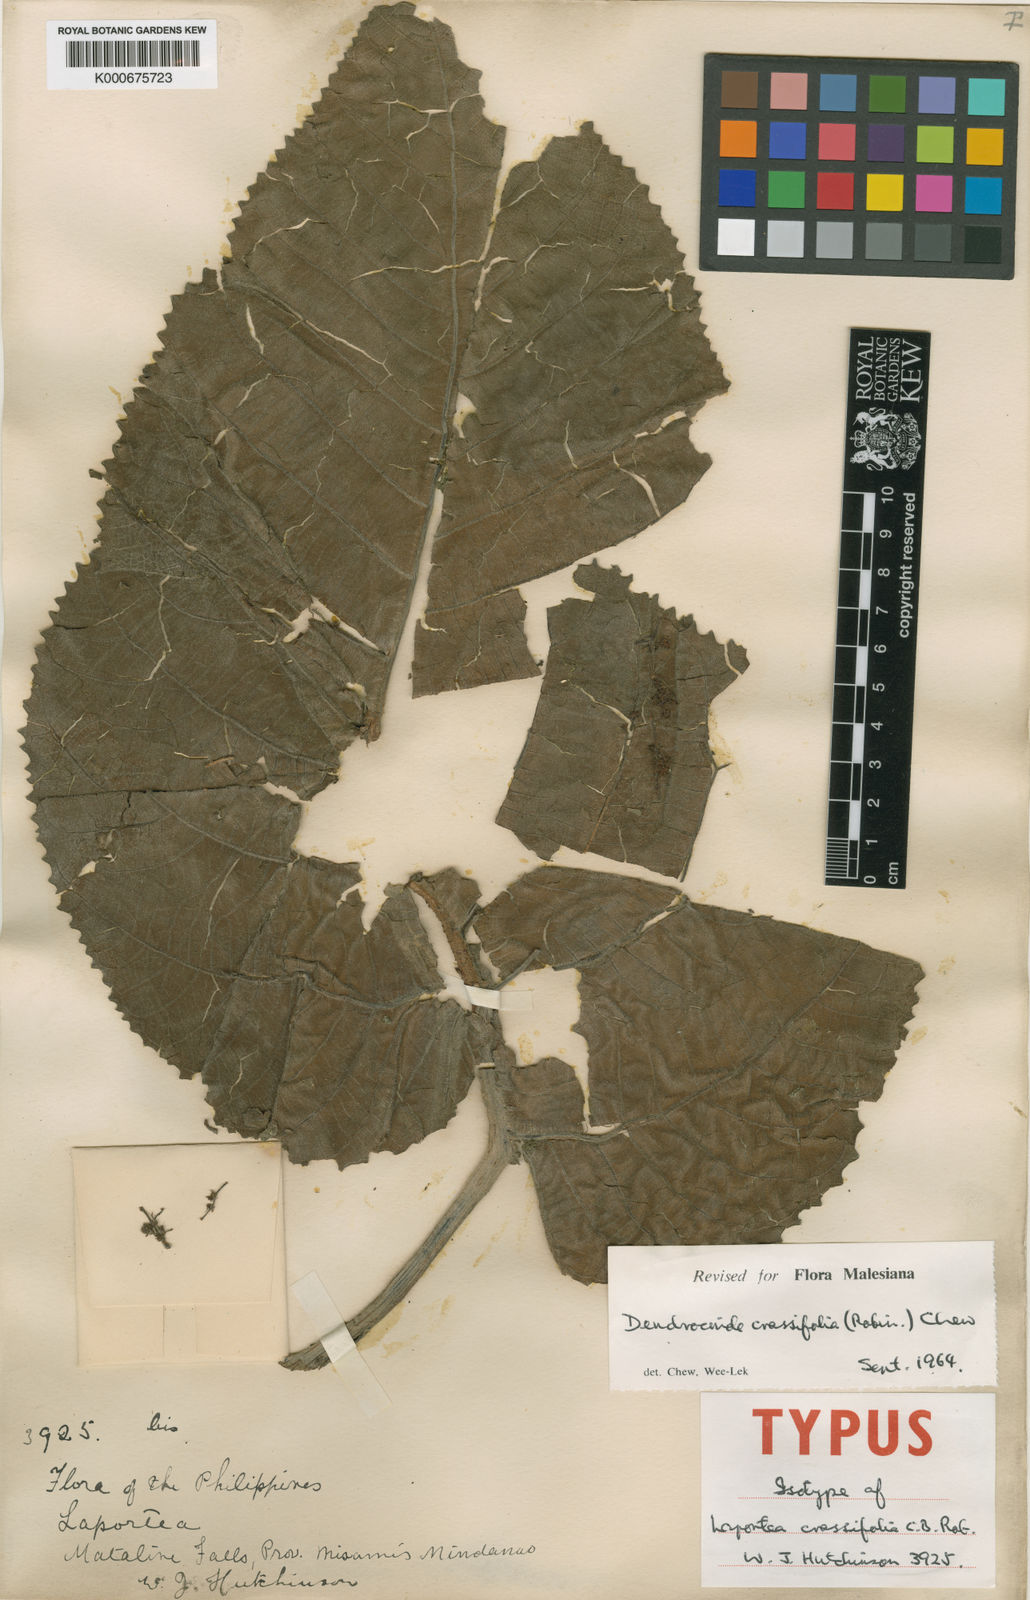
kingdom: Plantae
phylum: Tracheophyta
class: Magnoliopsida
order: Rosales
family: Urticaceae
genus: Dendrocnide
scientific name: Dendrocnide crassifolia
